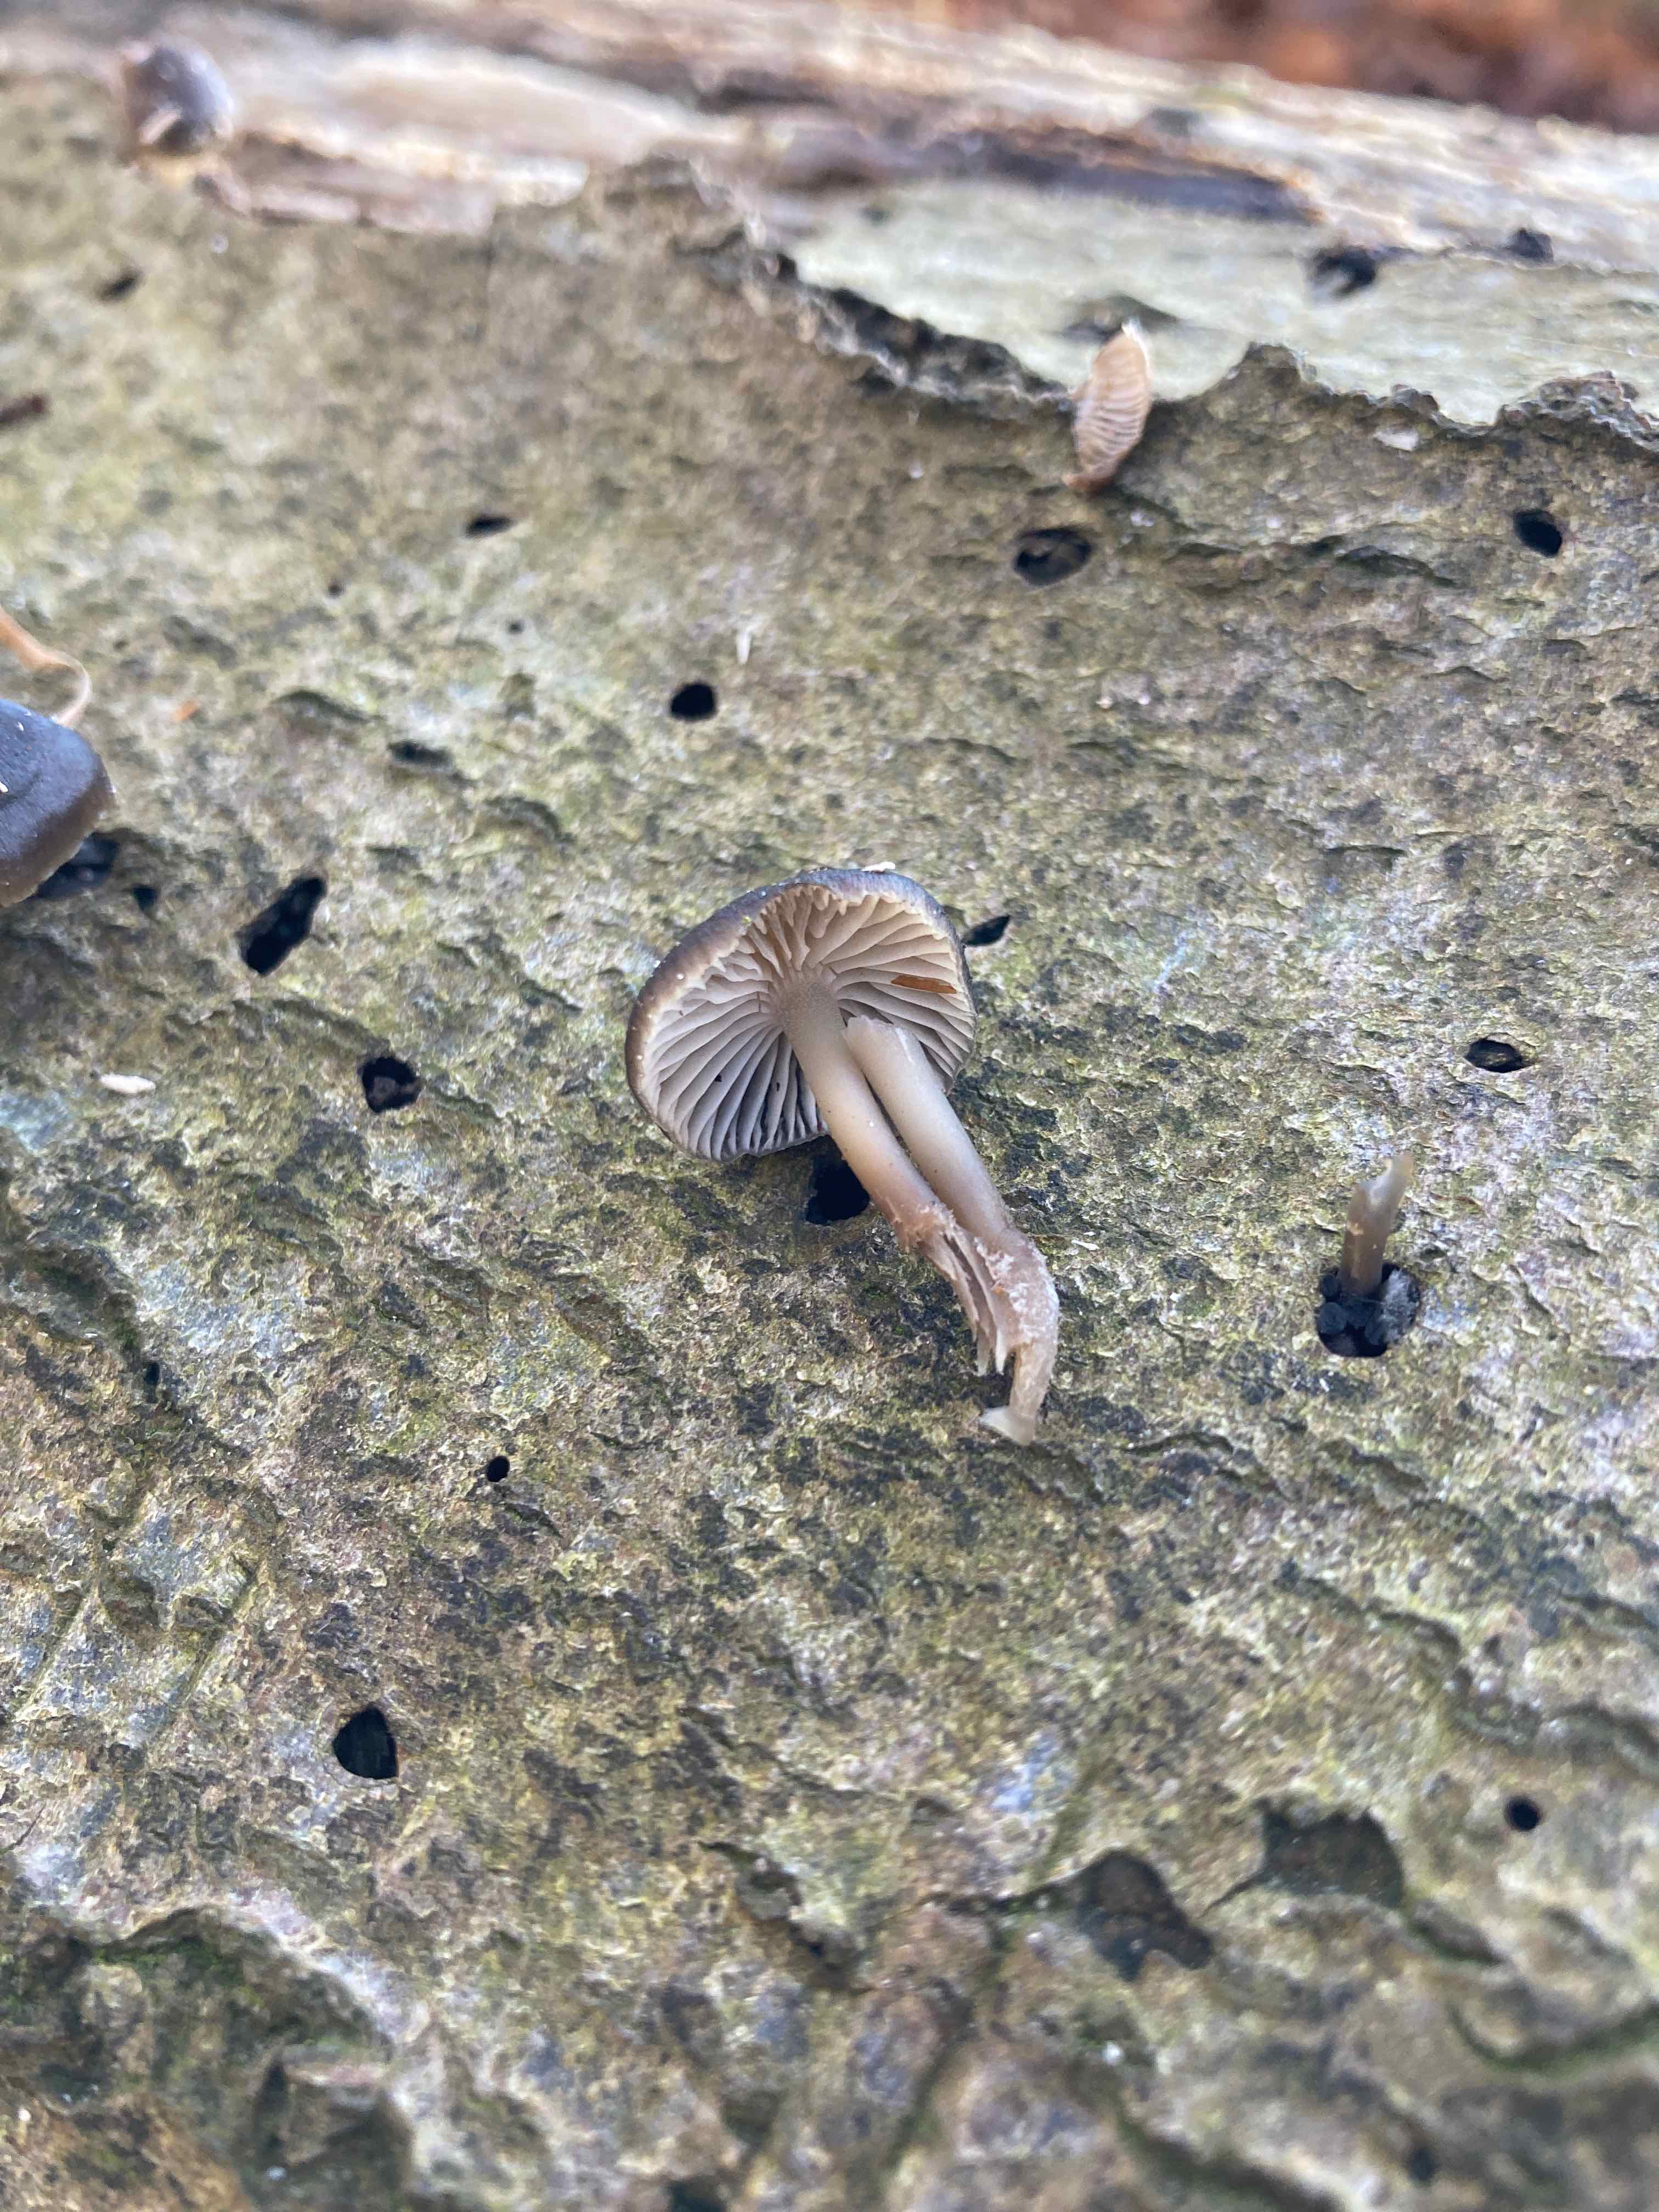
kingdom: Fungi
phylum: Basidiomycota
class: Agaricomycetes
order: Agaricales
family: Mycenaceae
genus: Mycena
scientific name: Mycena tintinnabulum
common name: vinter-huesvamp
